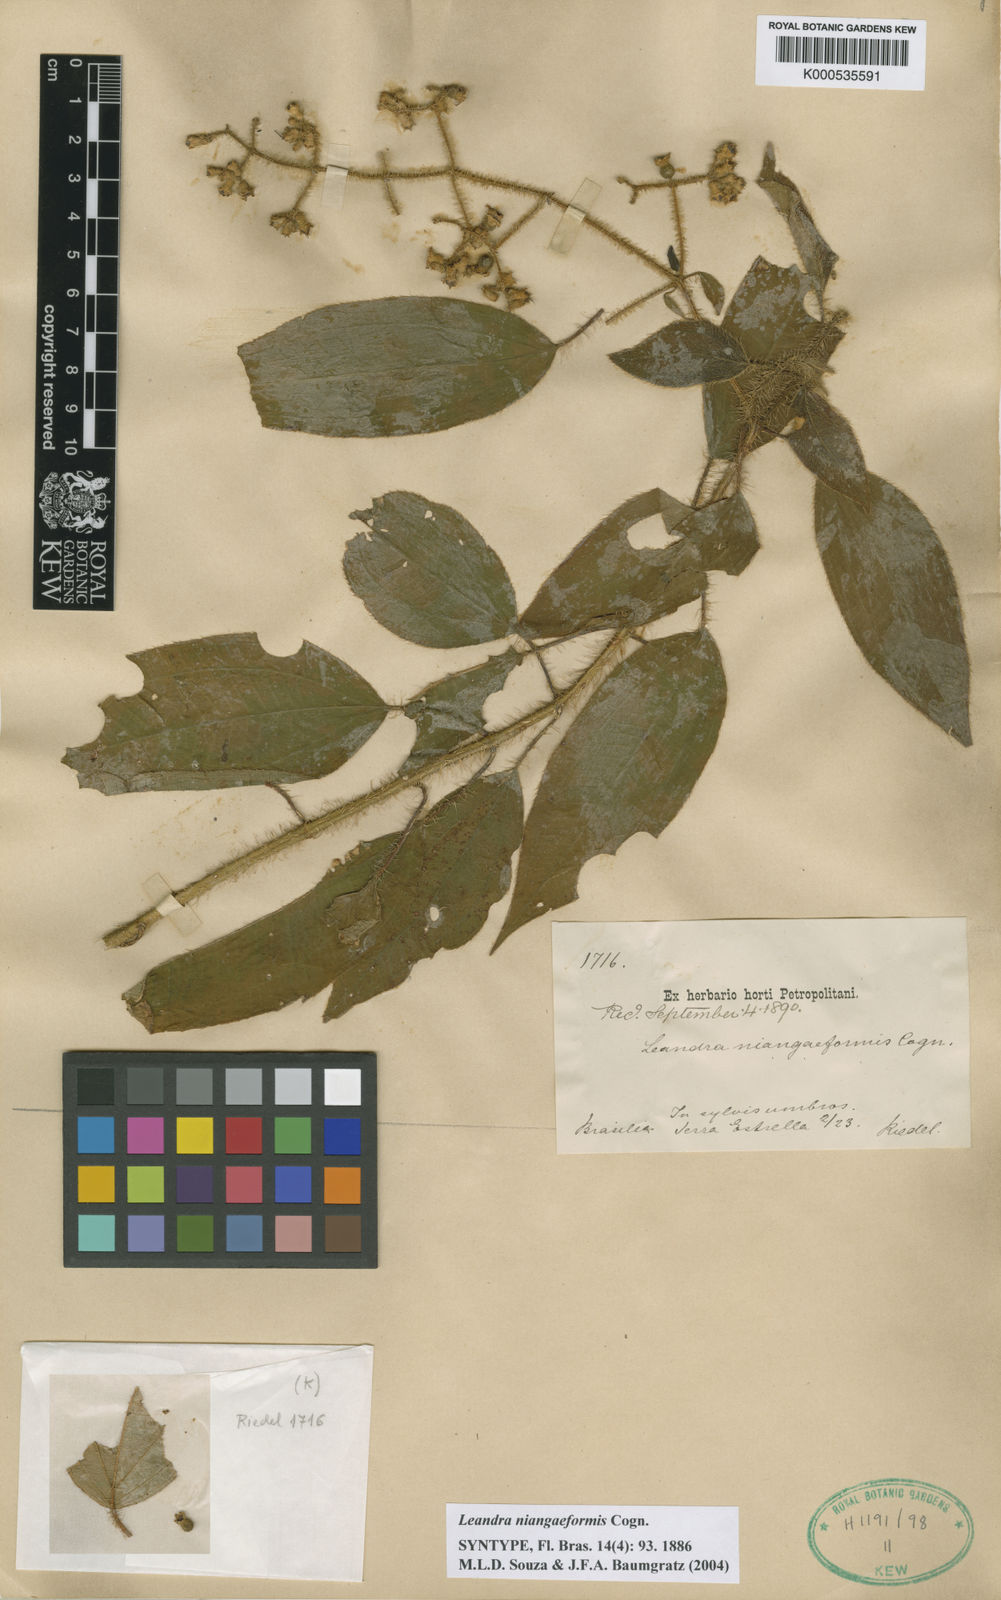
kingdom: Plantae
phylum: Tracheophyta
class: Magnoliopsida
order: Myrtales
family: Melastomataceae
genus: Miconia
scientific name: Miconia niangaeformis
